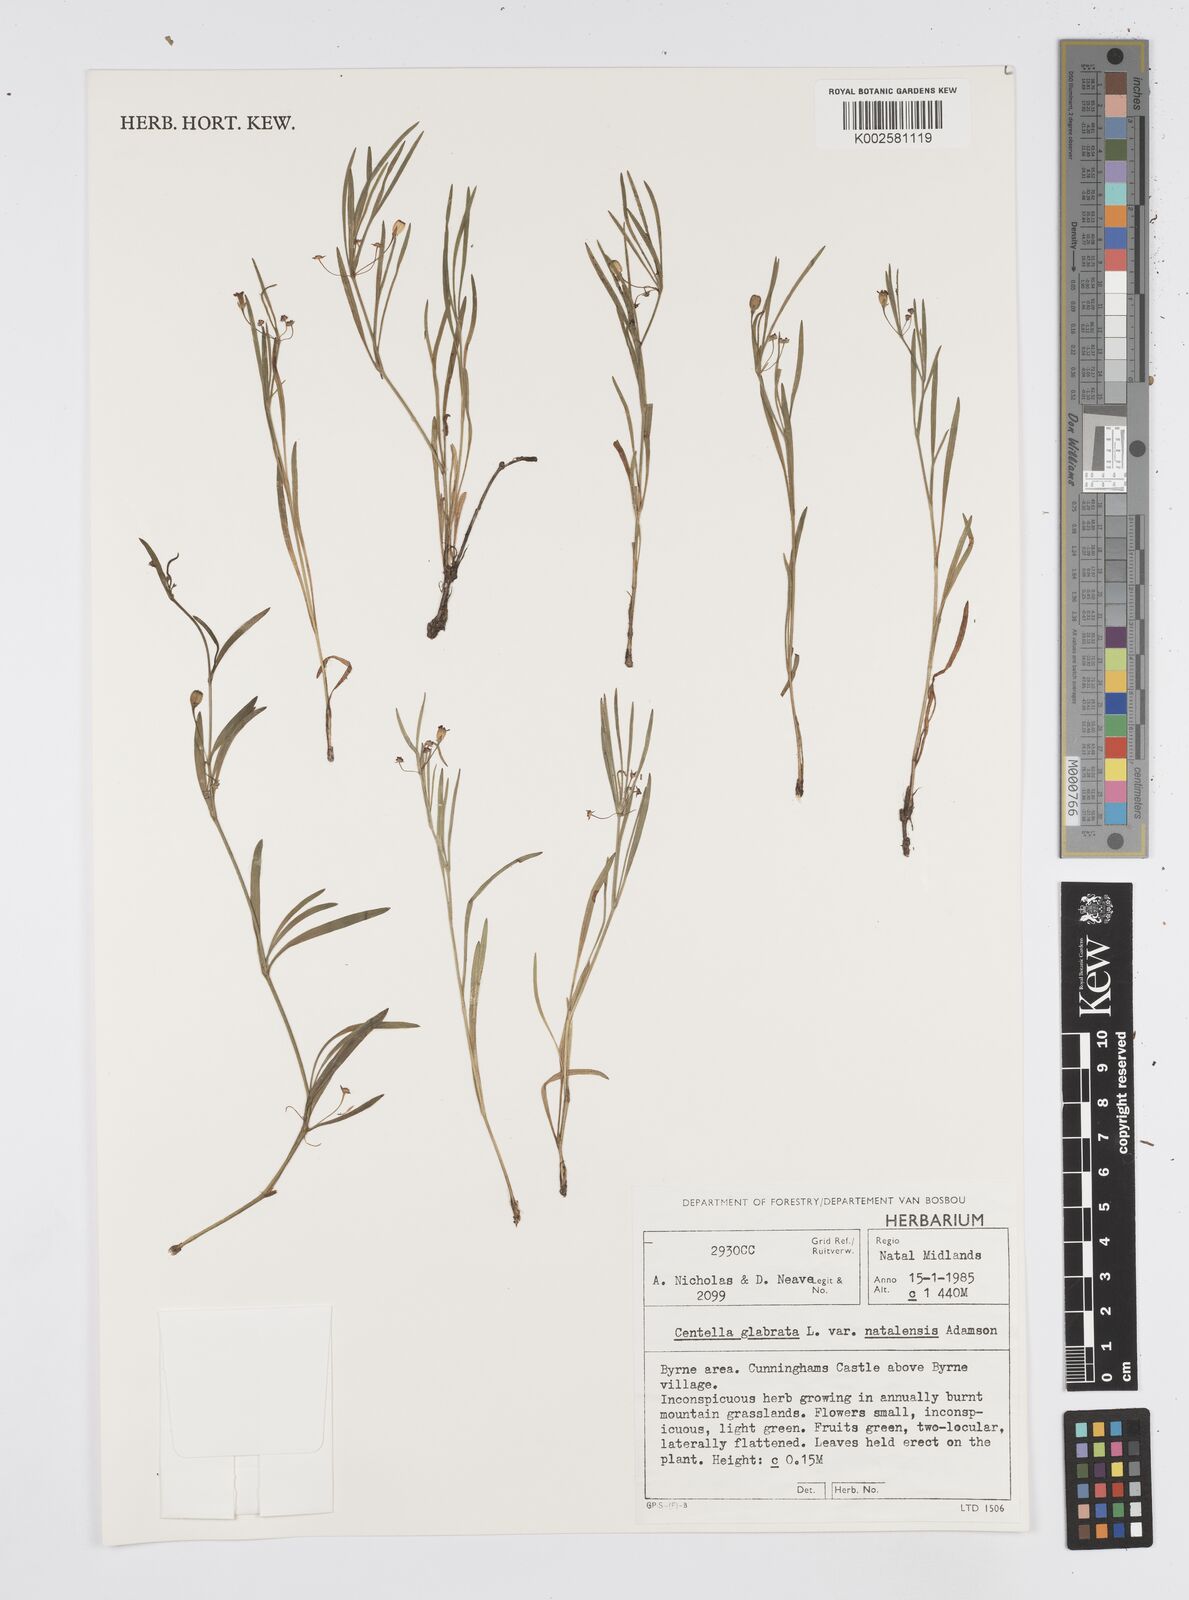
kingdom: Plantae
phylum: Tracheophyta
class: Magnoliopsida
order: Apiales
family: Apiaceae
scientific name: Apiaceae
